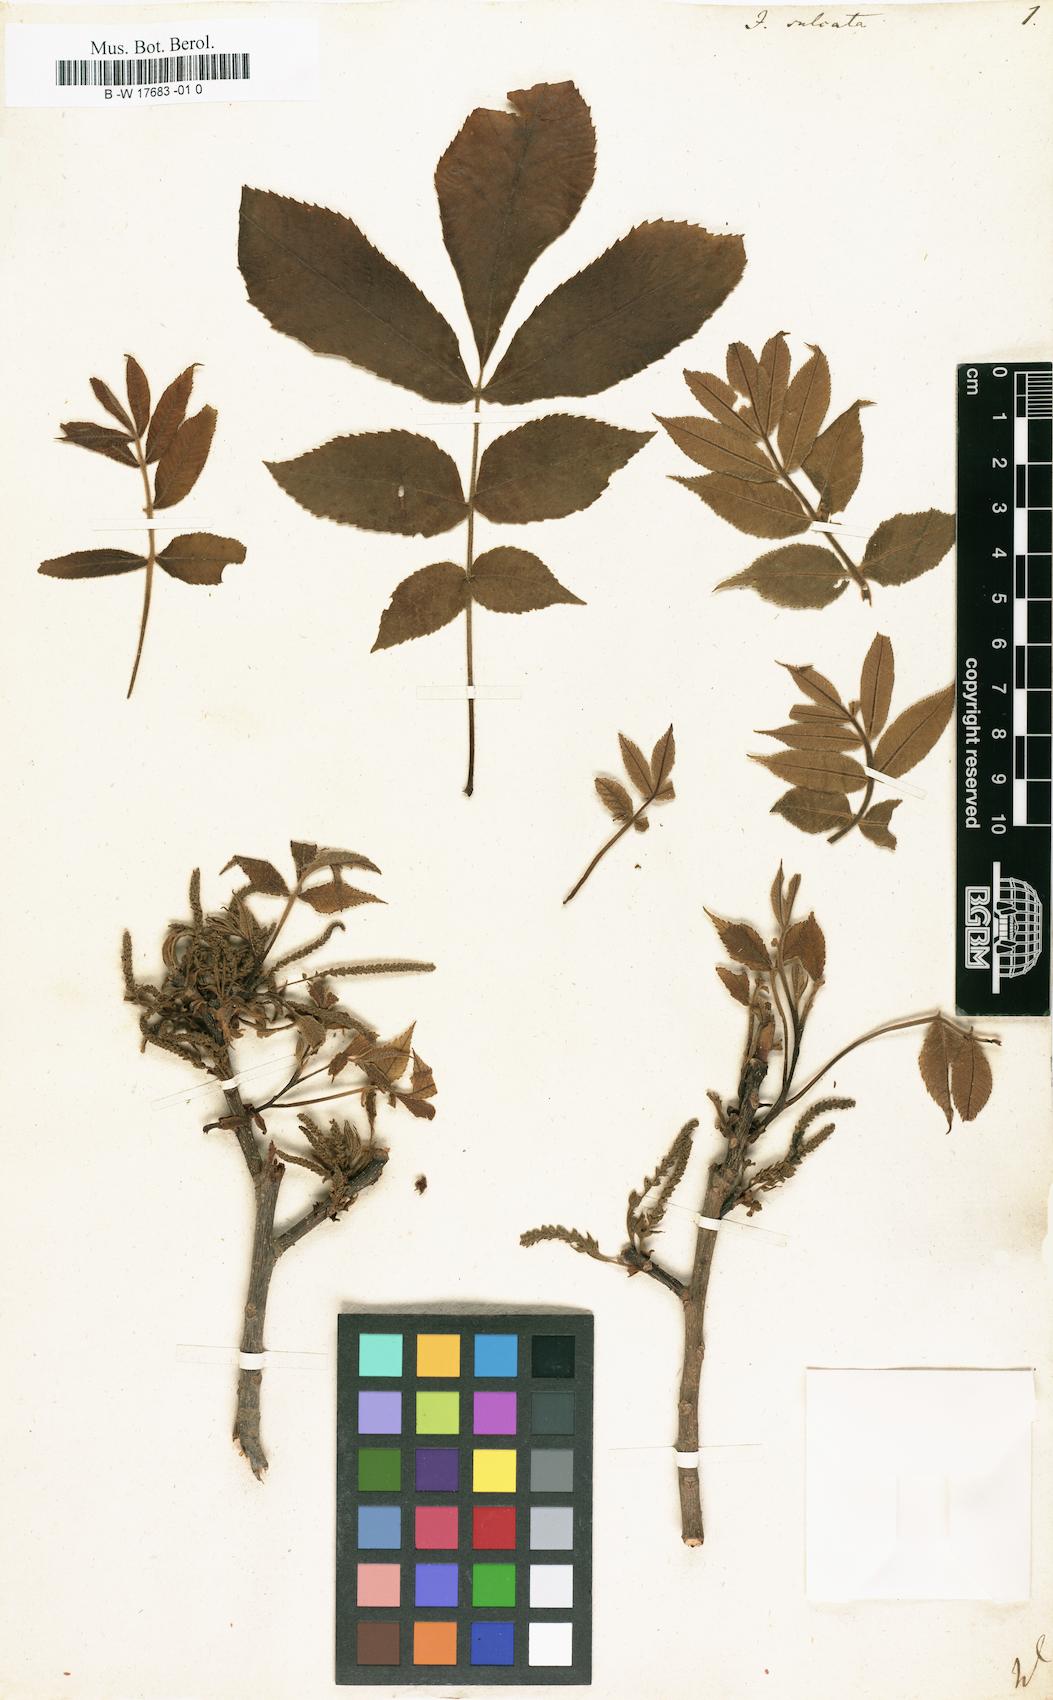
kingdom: Plantae
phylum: Tracheophyta
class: Magnoliopsida
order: Fagales
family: Juglandaceae
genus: Carya
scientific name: Carya laciniosa
